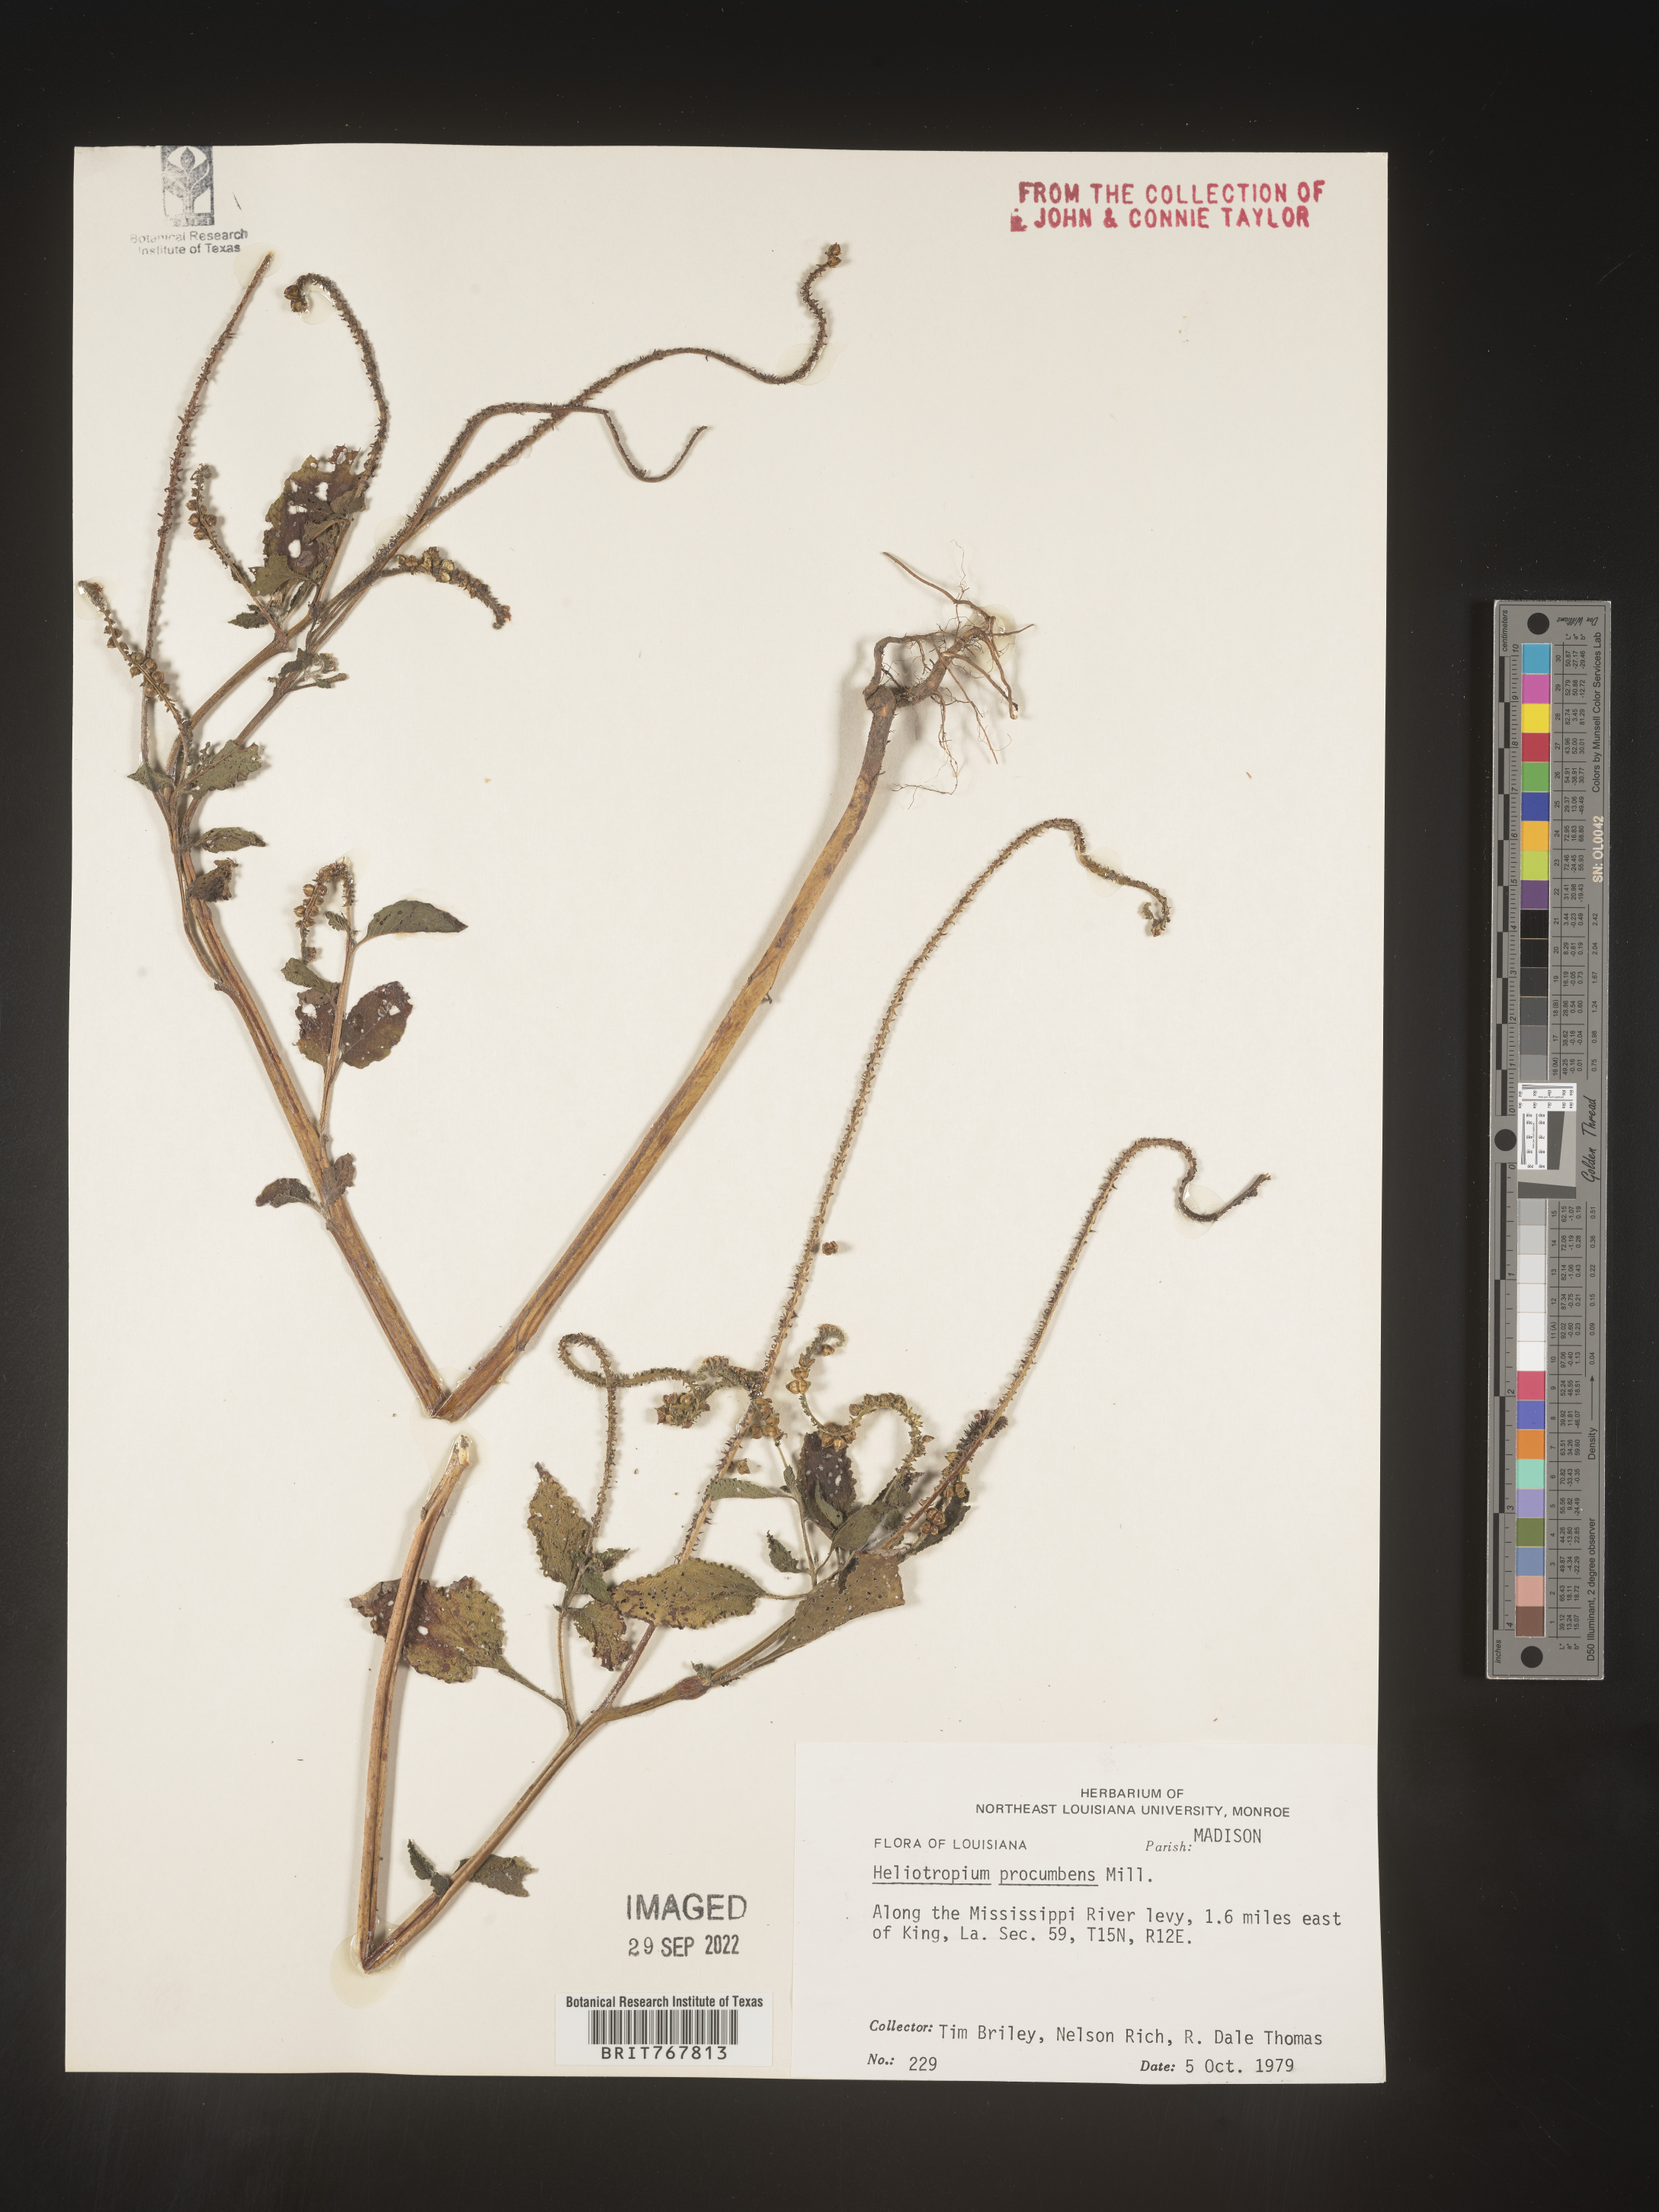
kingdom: Plantae
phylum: Tracheophyta
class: Magnoliopsida
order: Boraginales
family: Heliotropiaceae
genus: Heliotropium
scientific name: Heliotropium
